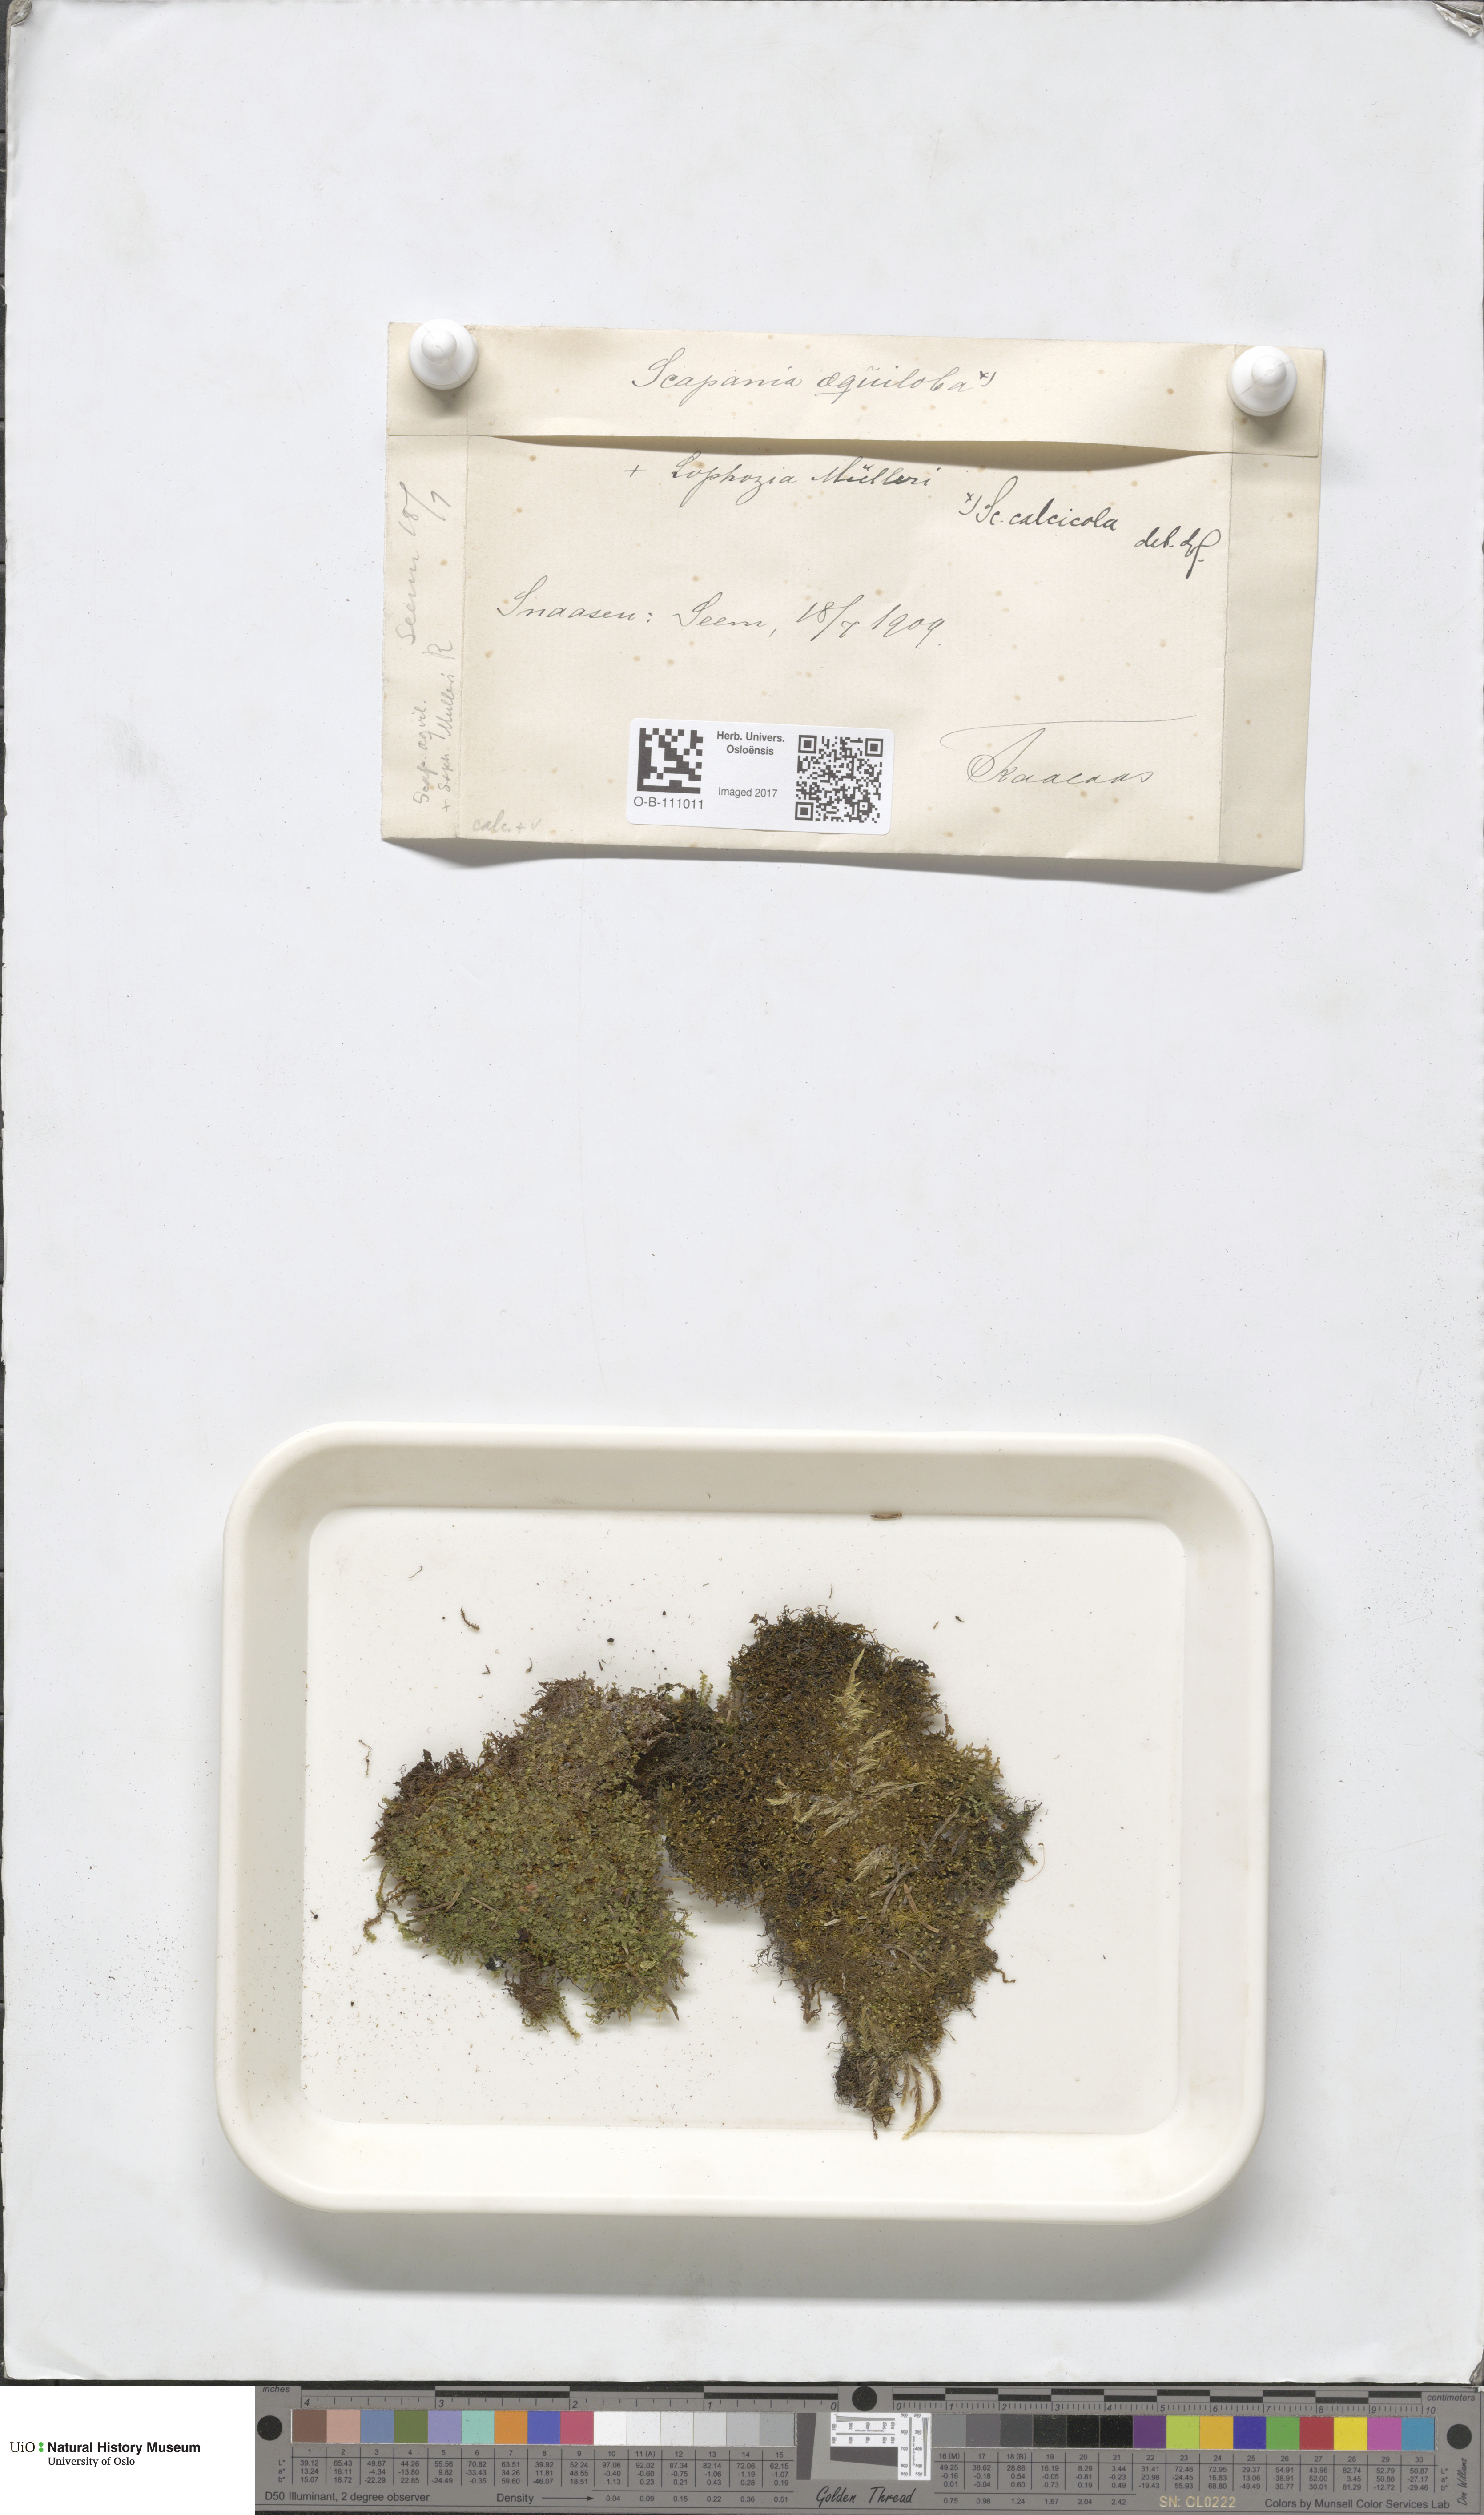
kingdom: Plantae
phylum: Marchantiophyta
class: Jungermanniopsida
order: Jungermanniales
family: Scapaniaceae
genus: Scapania
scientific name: Scapania calcicola
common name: Calcicolous earwort
